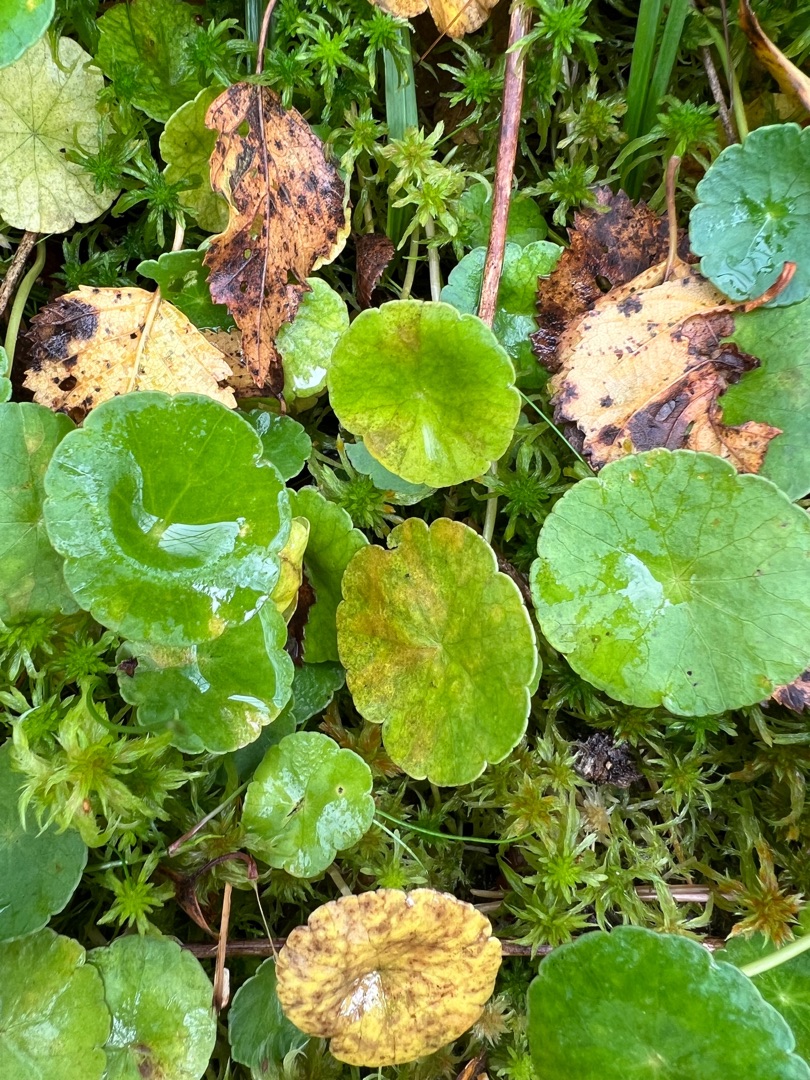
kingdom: Plantae
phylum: Tracheophyta
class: Magnoliopsida
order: Apiales
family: Araliaceae
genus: Hydrocotyle
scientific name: Hydrocotyle vulgaris
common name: Vandnavle
